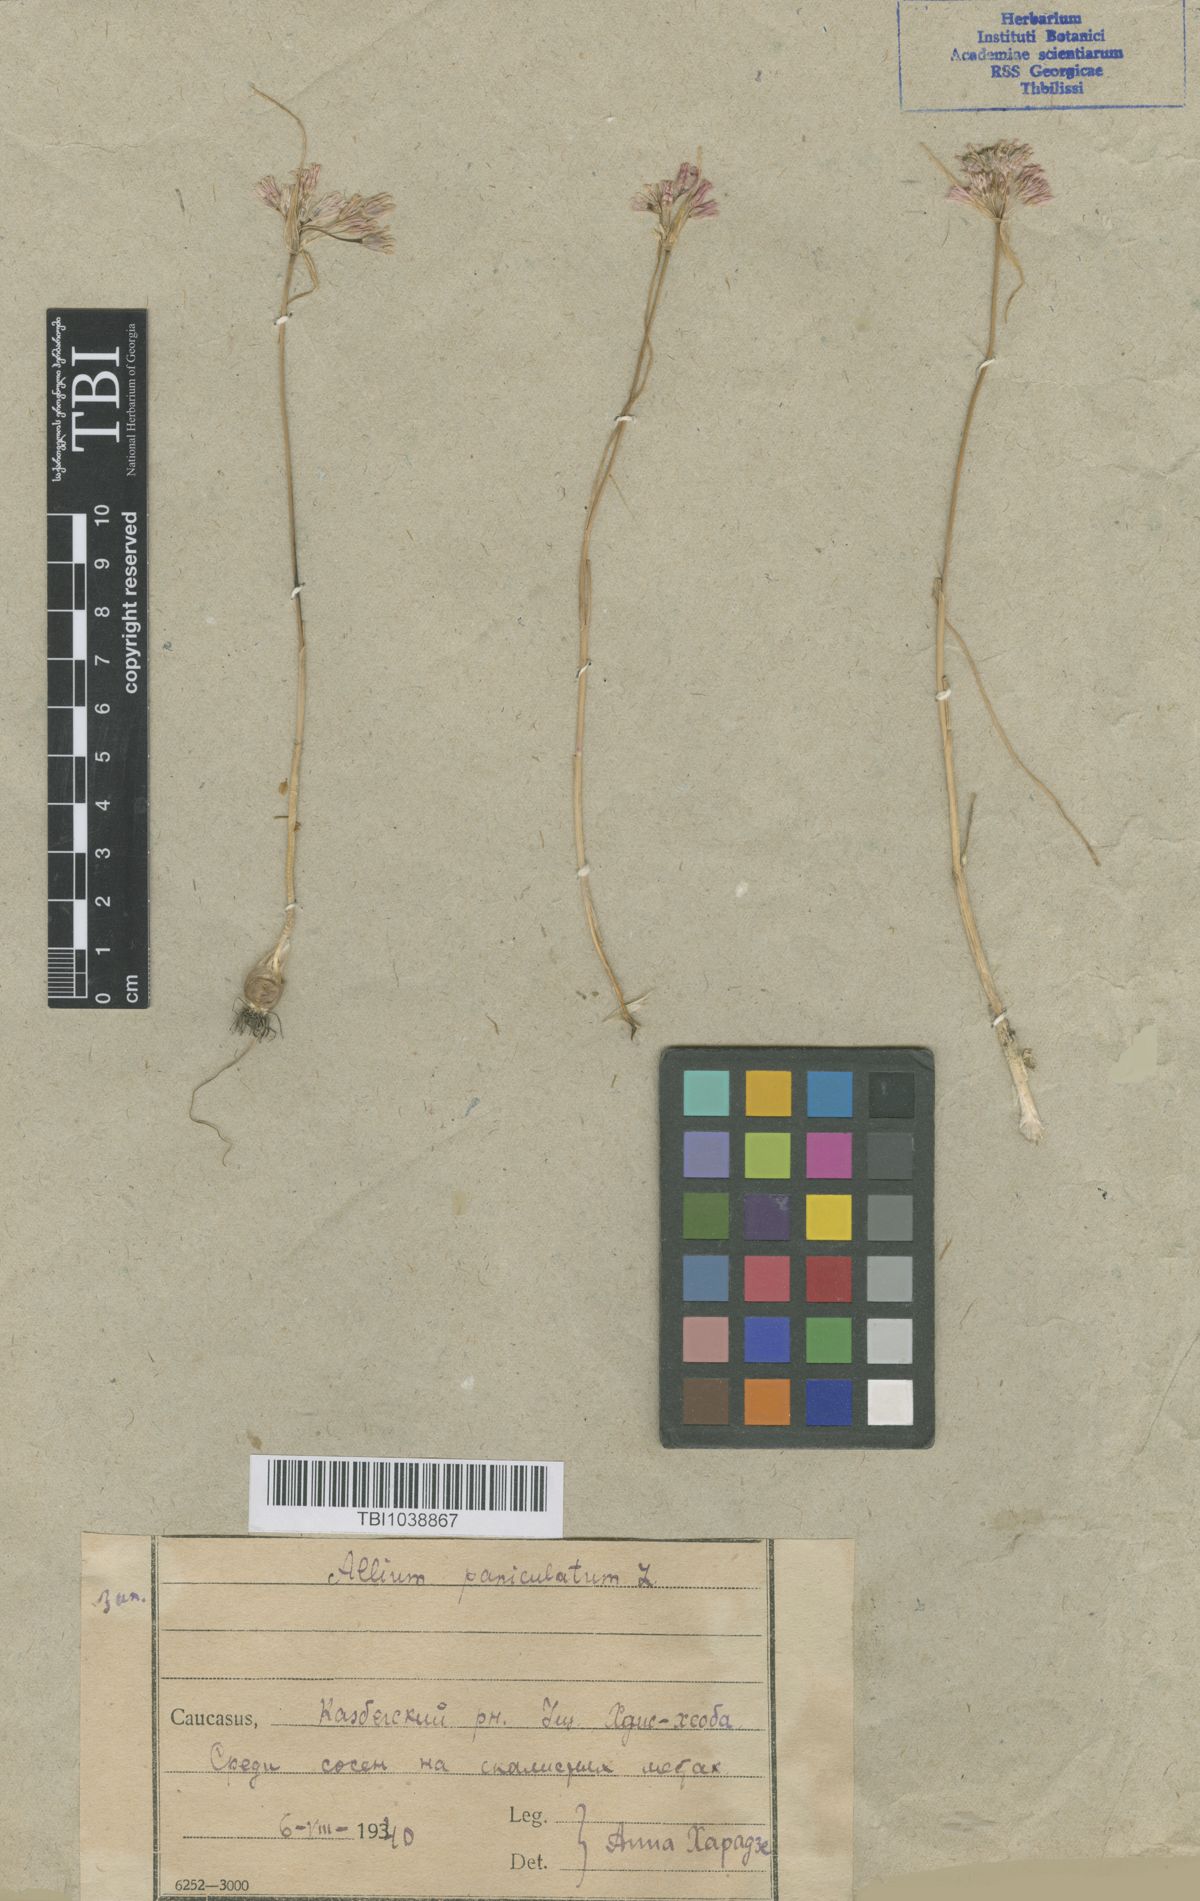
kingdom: Plantae
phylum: Tracheophyta
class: Liliopsida
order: Asparagales
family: Amaryllidaceae
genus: Allium
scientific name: Allium paniculatum
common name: Pale garlic
